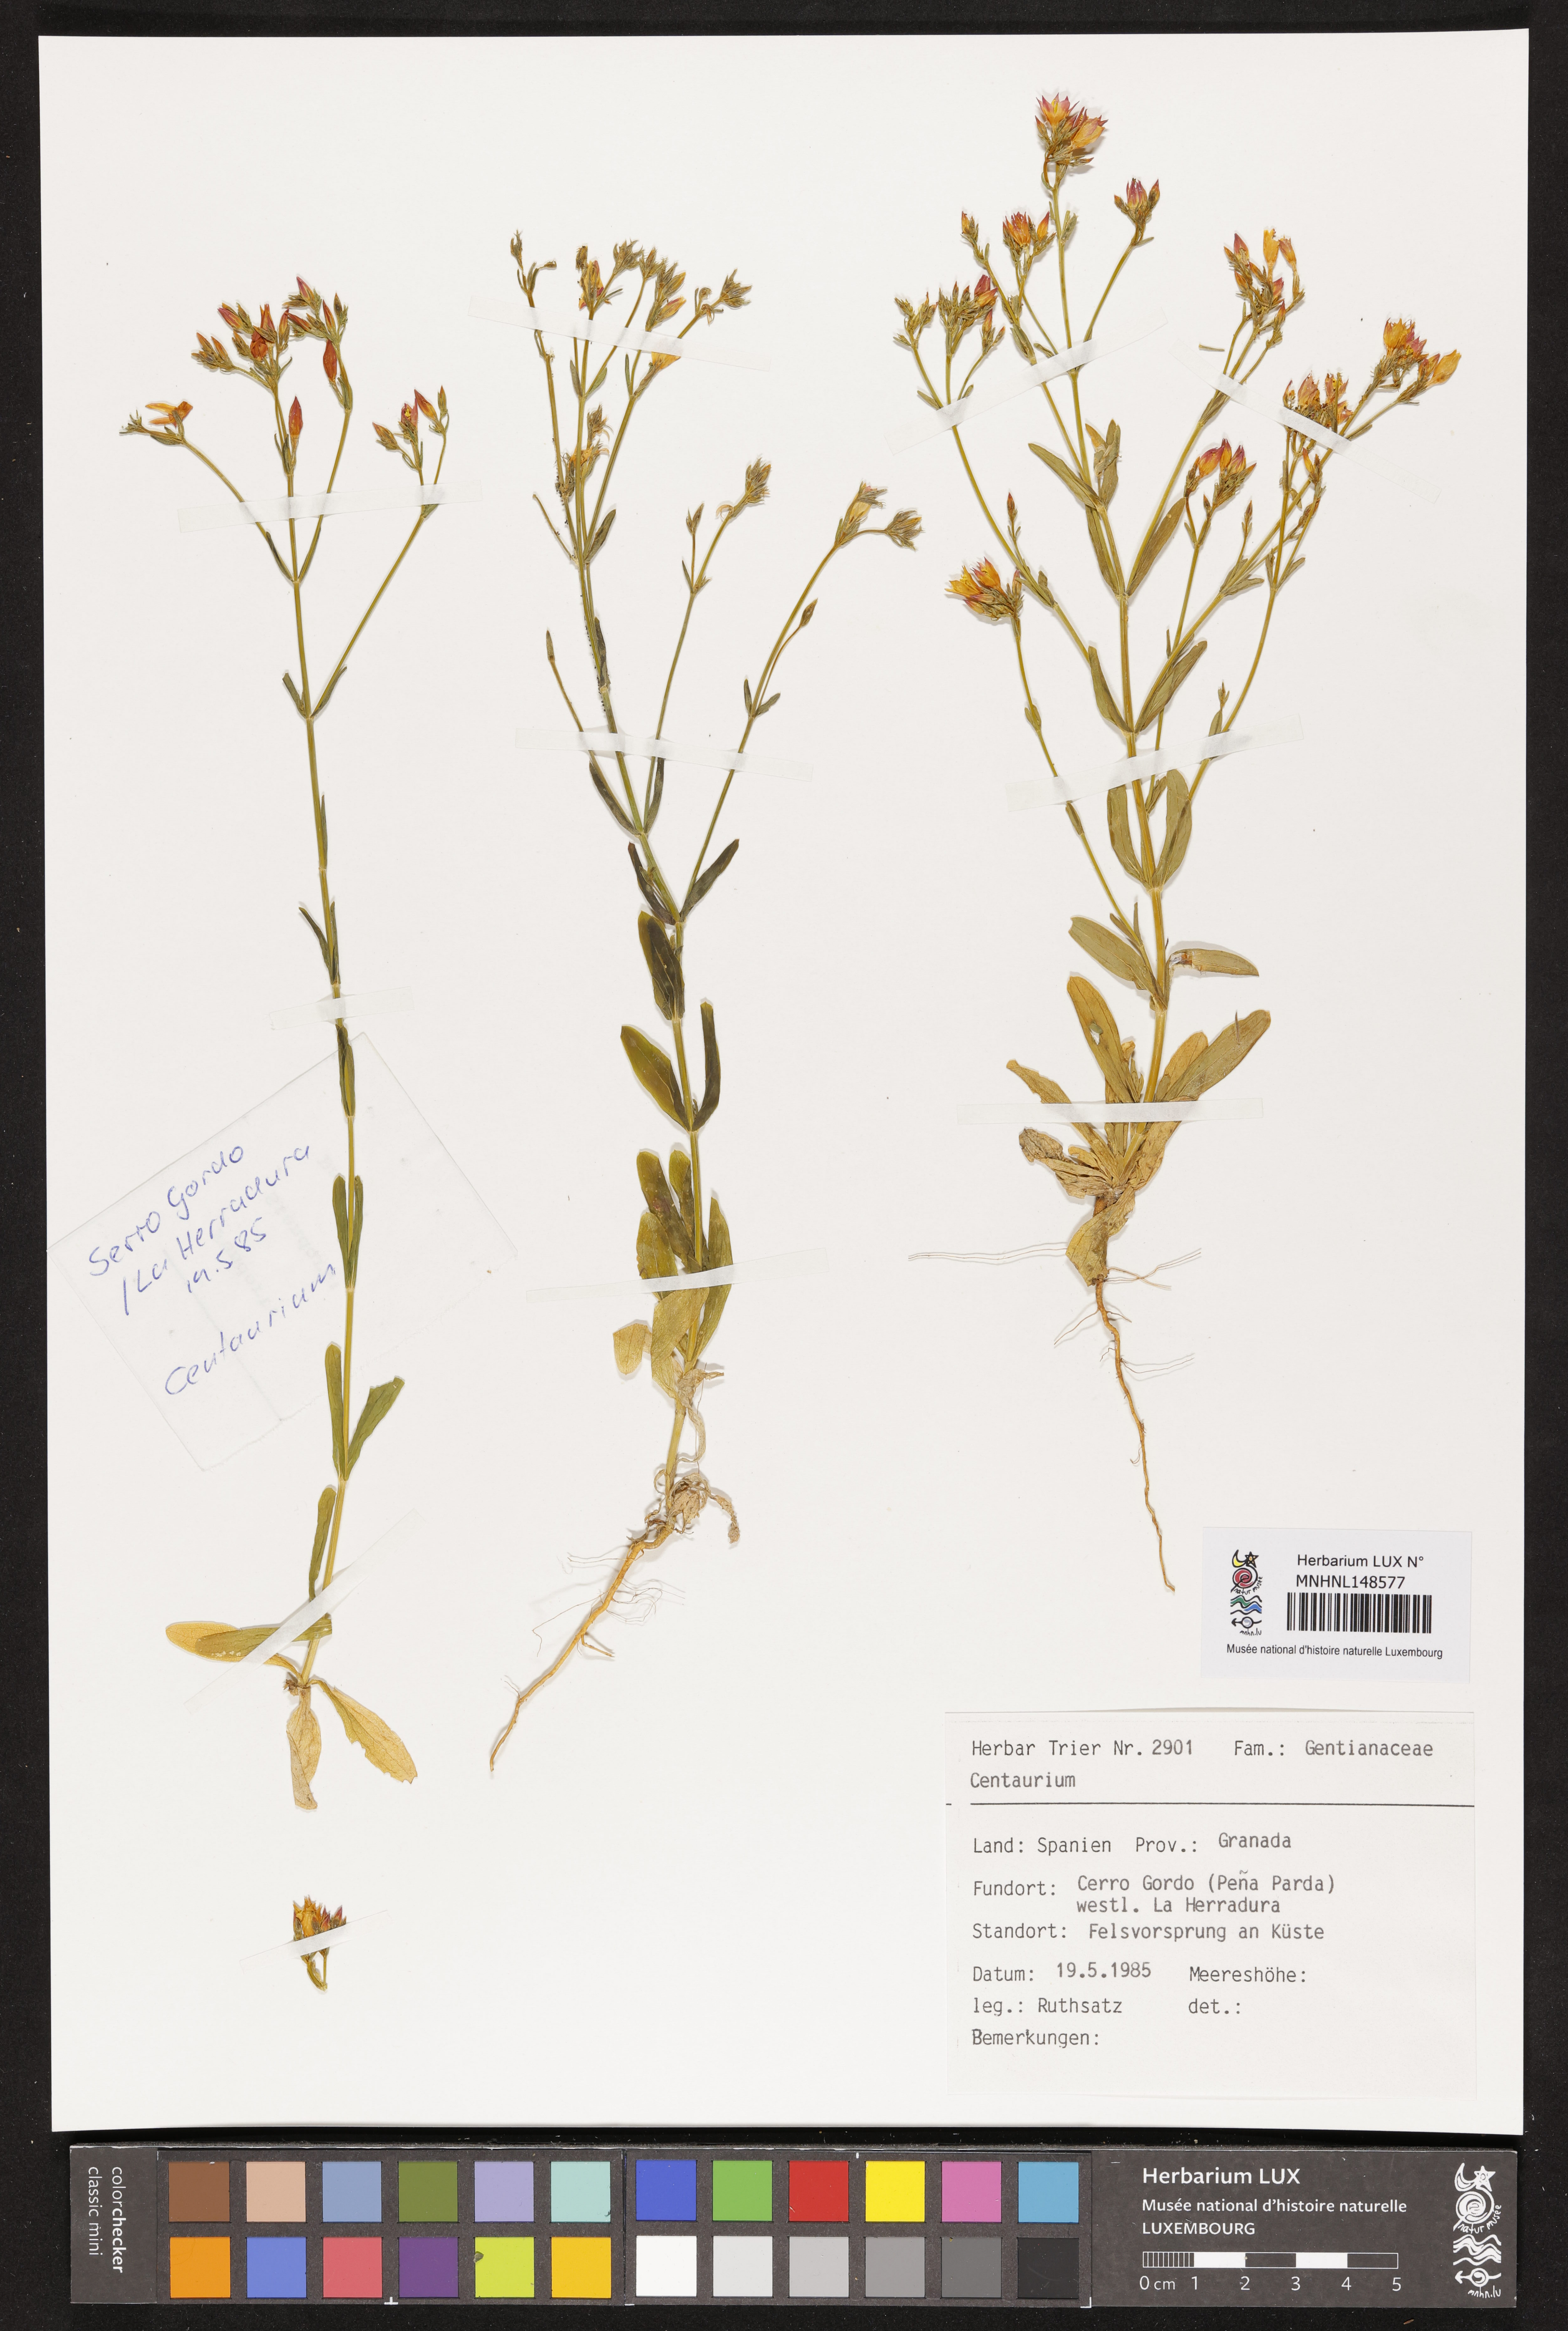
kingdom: Plantae
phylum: Tracheophyta
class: Magnoliopsida
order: Gentianales
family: Gentianaceae
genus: Centaurium
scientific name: Centaurium
